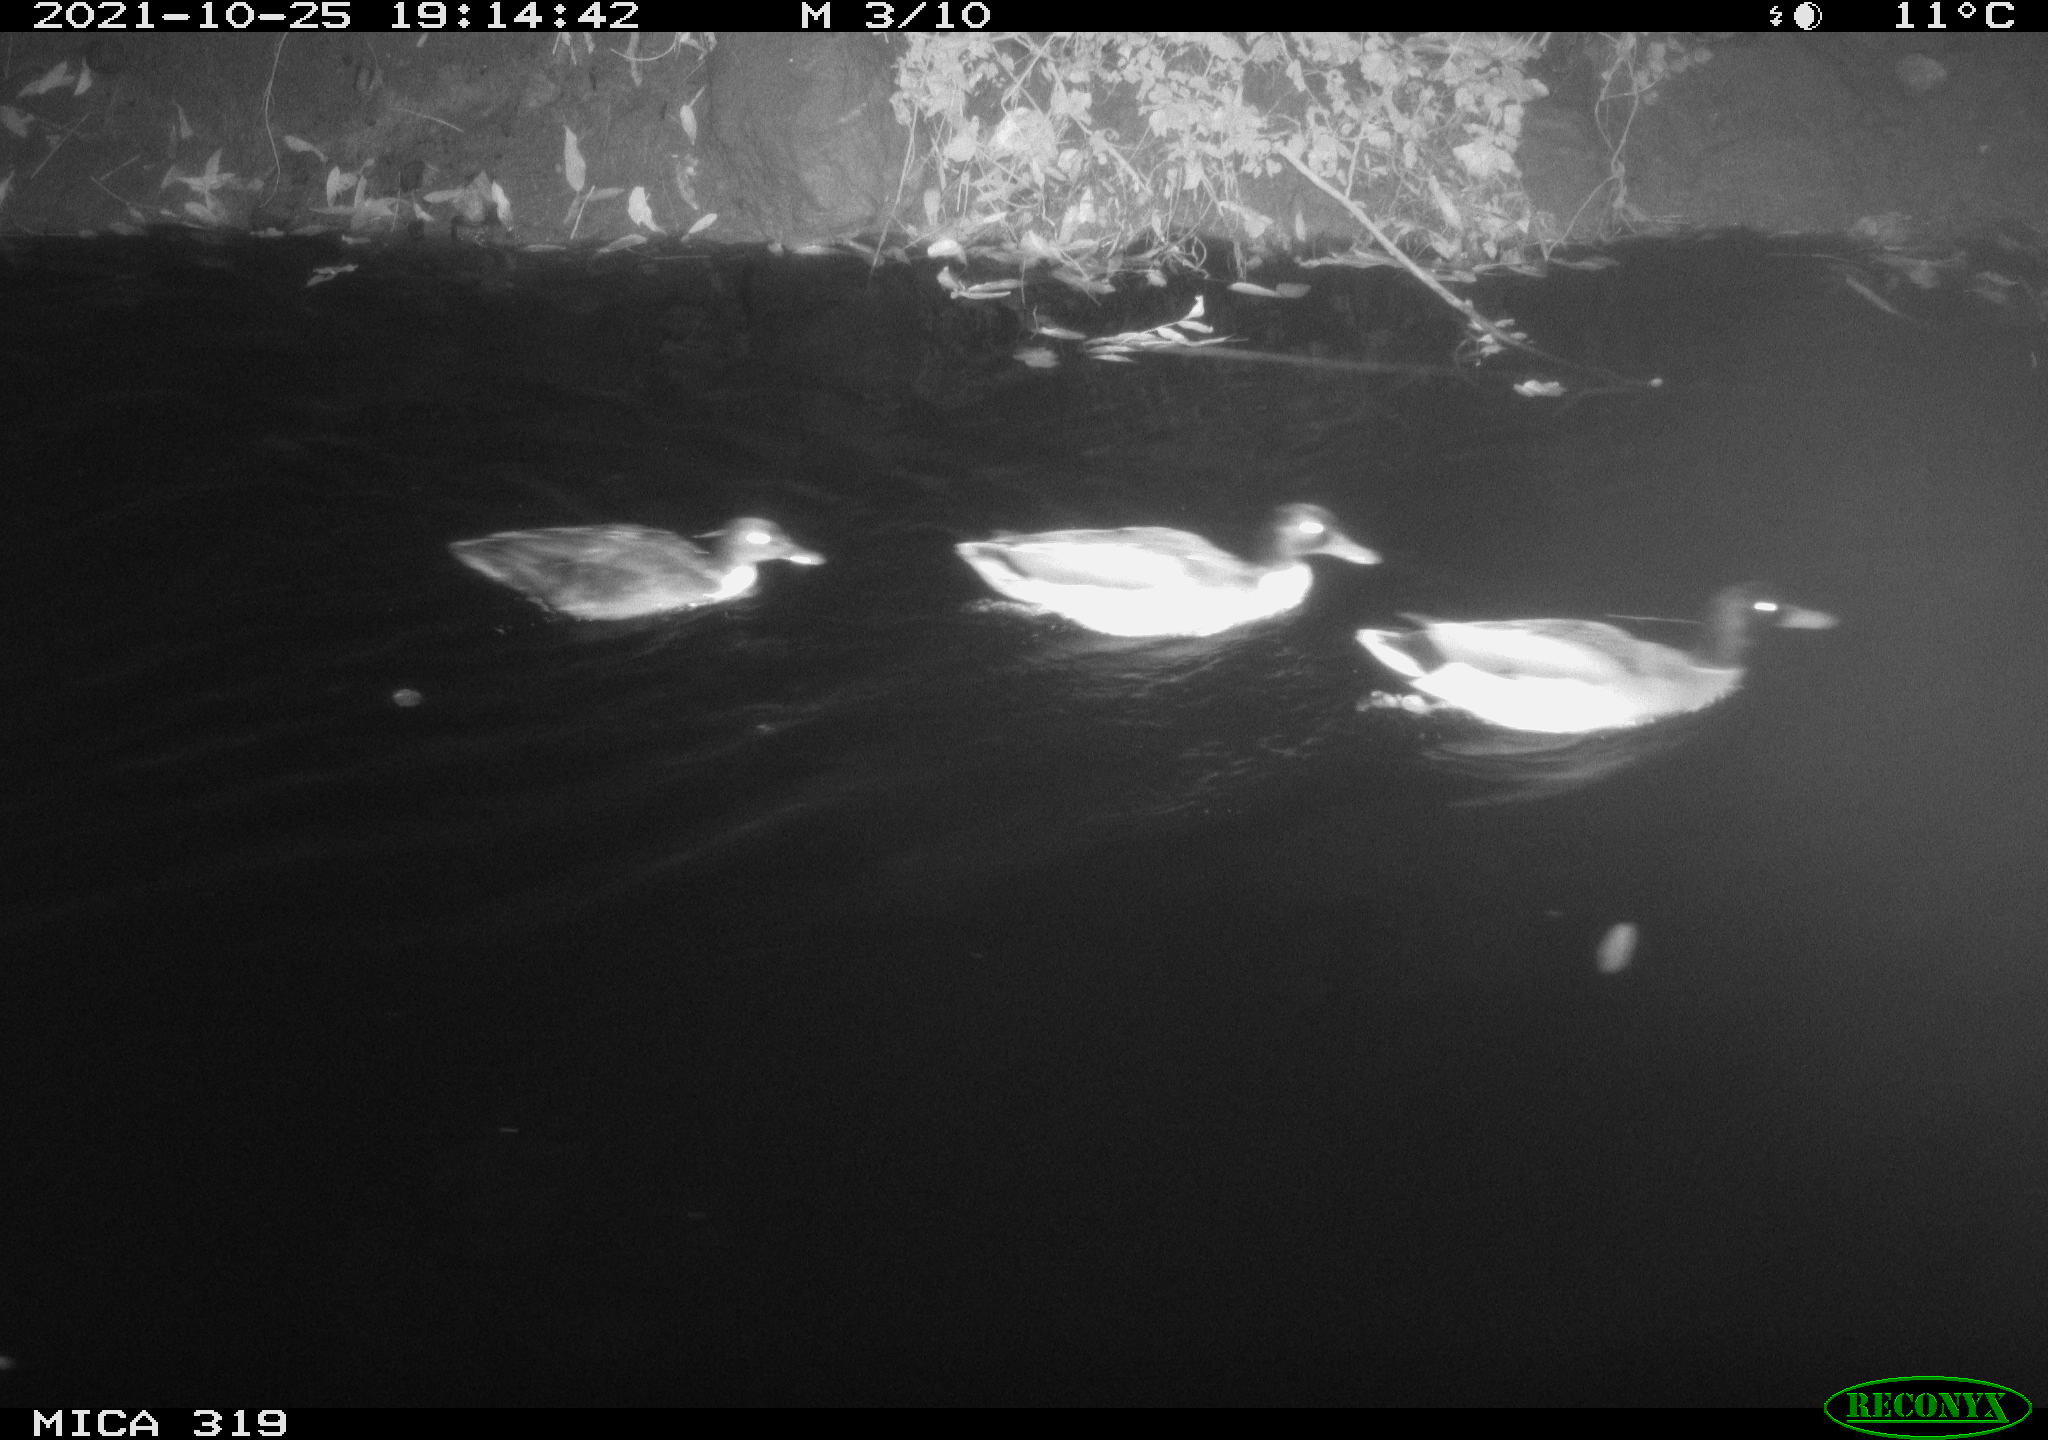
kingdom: Animalia
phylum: Chordata
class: Aves
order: Anseriformes
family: Anatidae
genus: Anas
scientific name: Anas platyrhynchos
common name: Mallard
